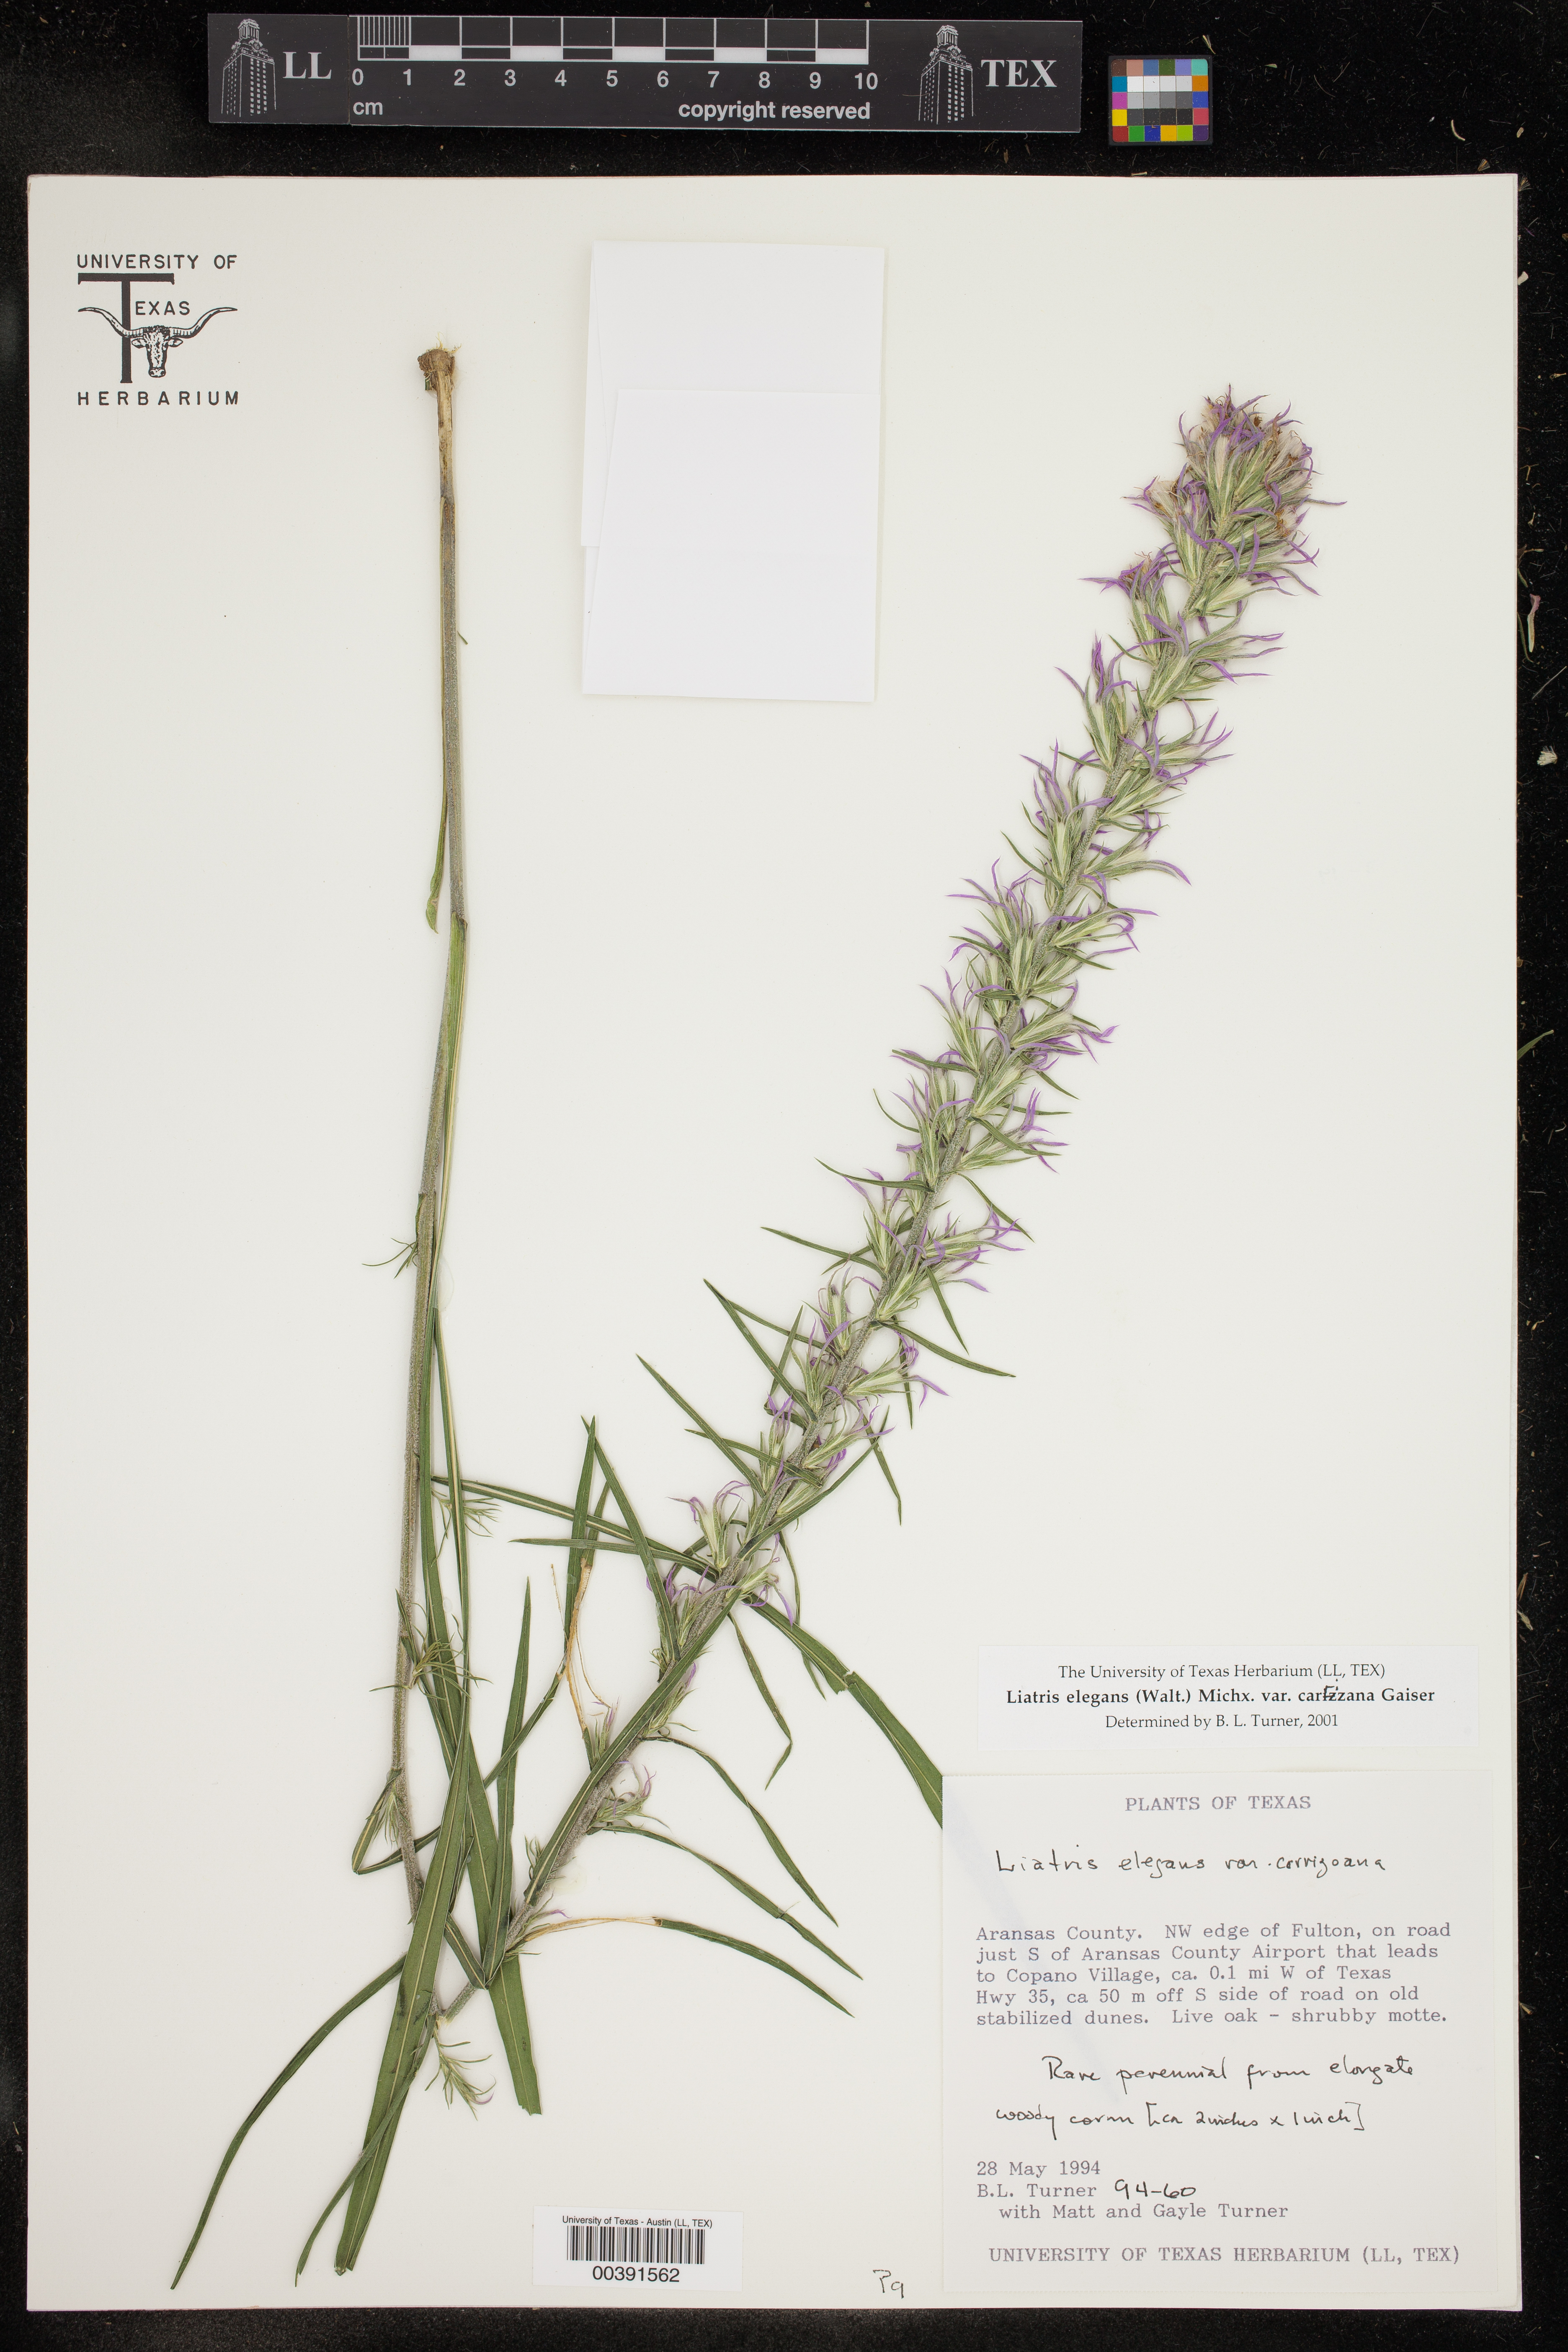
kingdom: Plantae
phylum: Tracheophyta
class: Magnoliopsida
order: Asterales
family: Asteraceae
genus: Liatris
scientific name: Liatris carizzana
